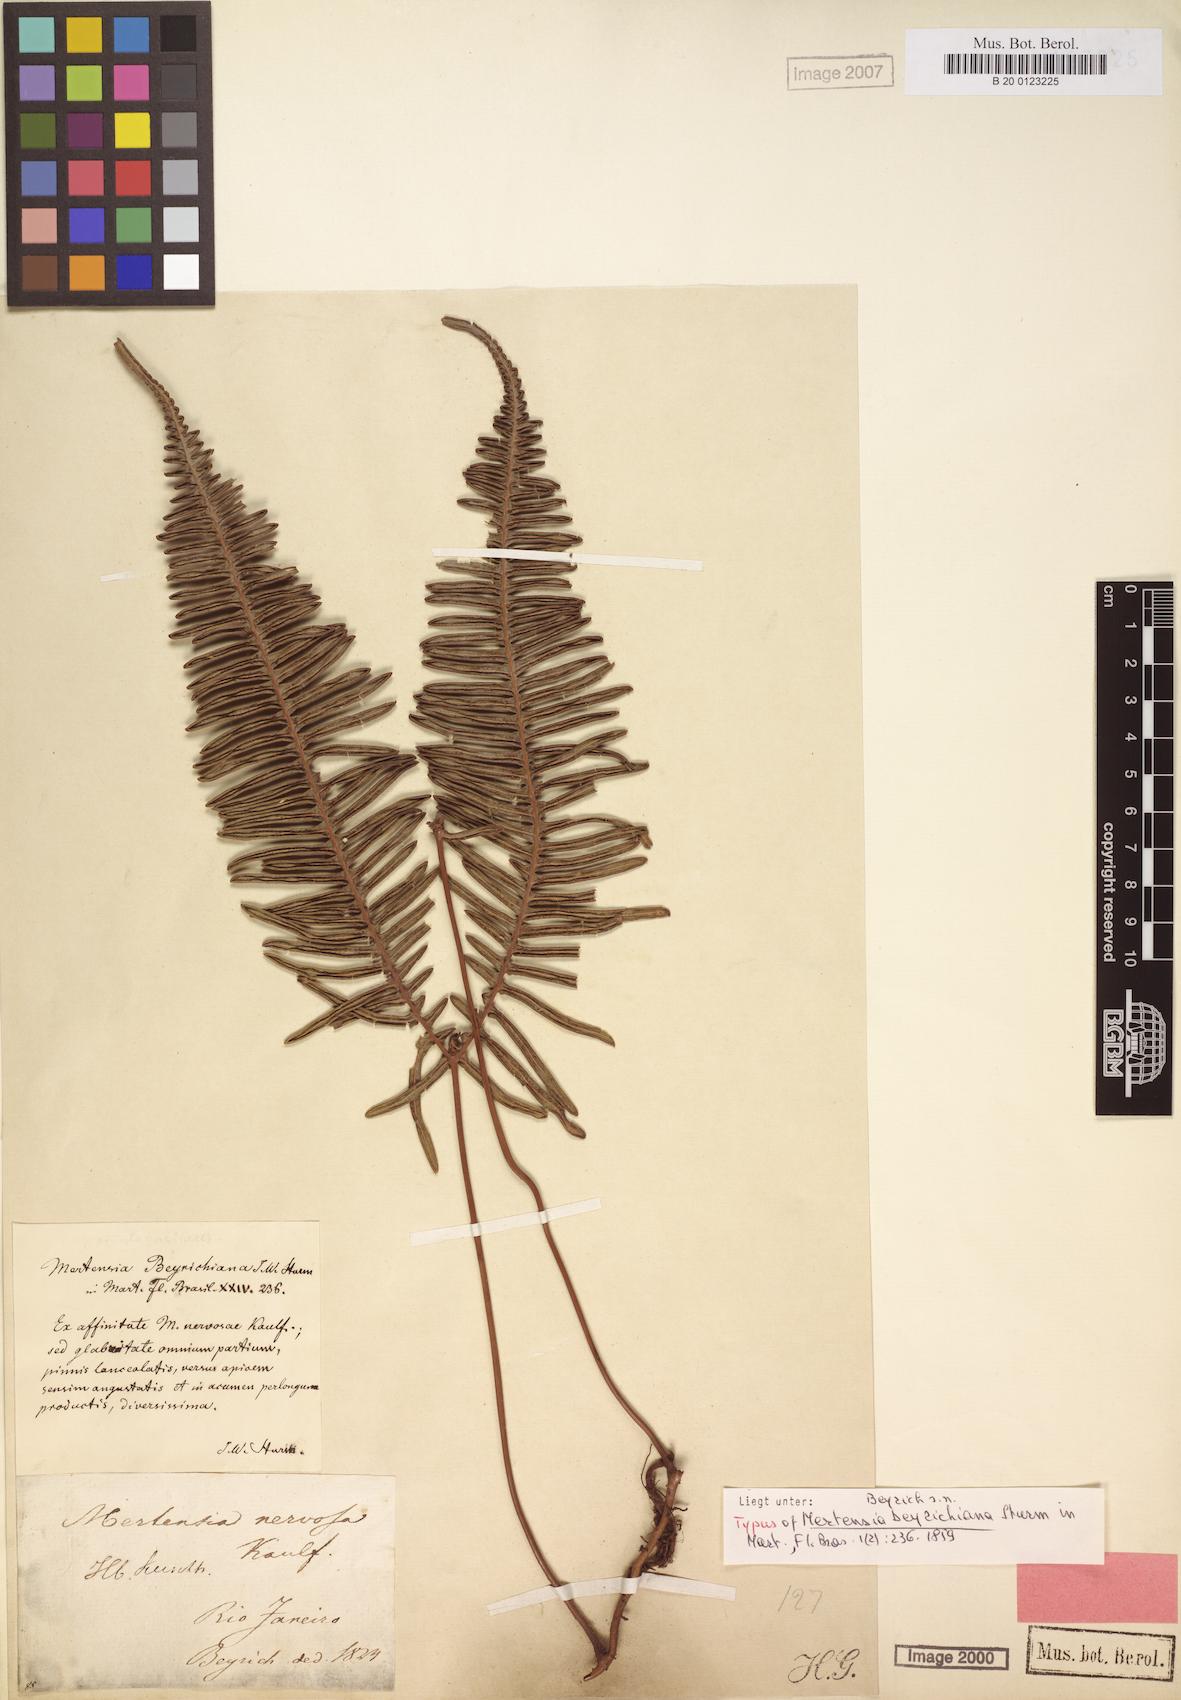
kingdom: Plantae
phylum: Tracheophyta
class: Polypodiopsida
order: Gleicheniales
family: Gleicheniaceae
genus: Dicranopteris
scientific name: Dicranopteris nervosa
